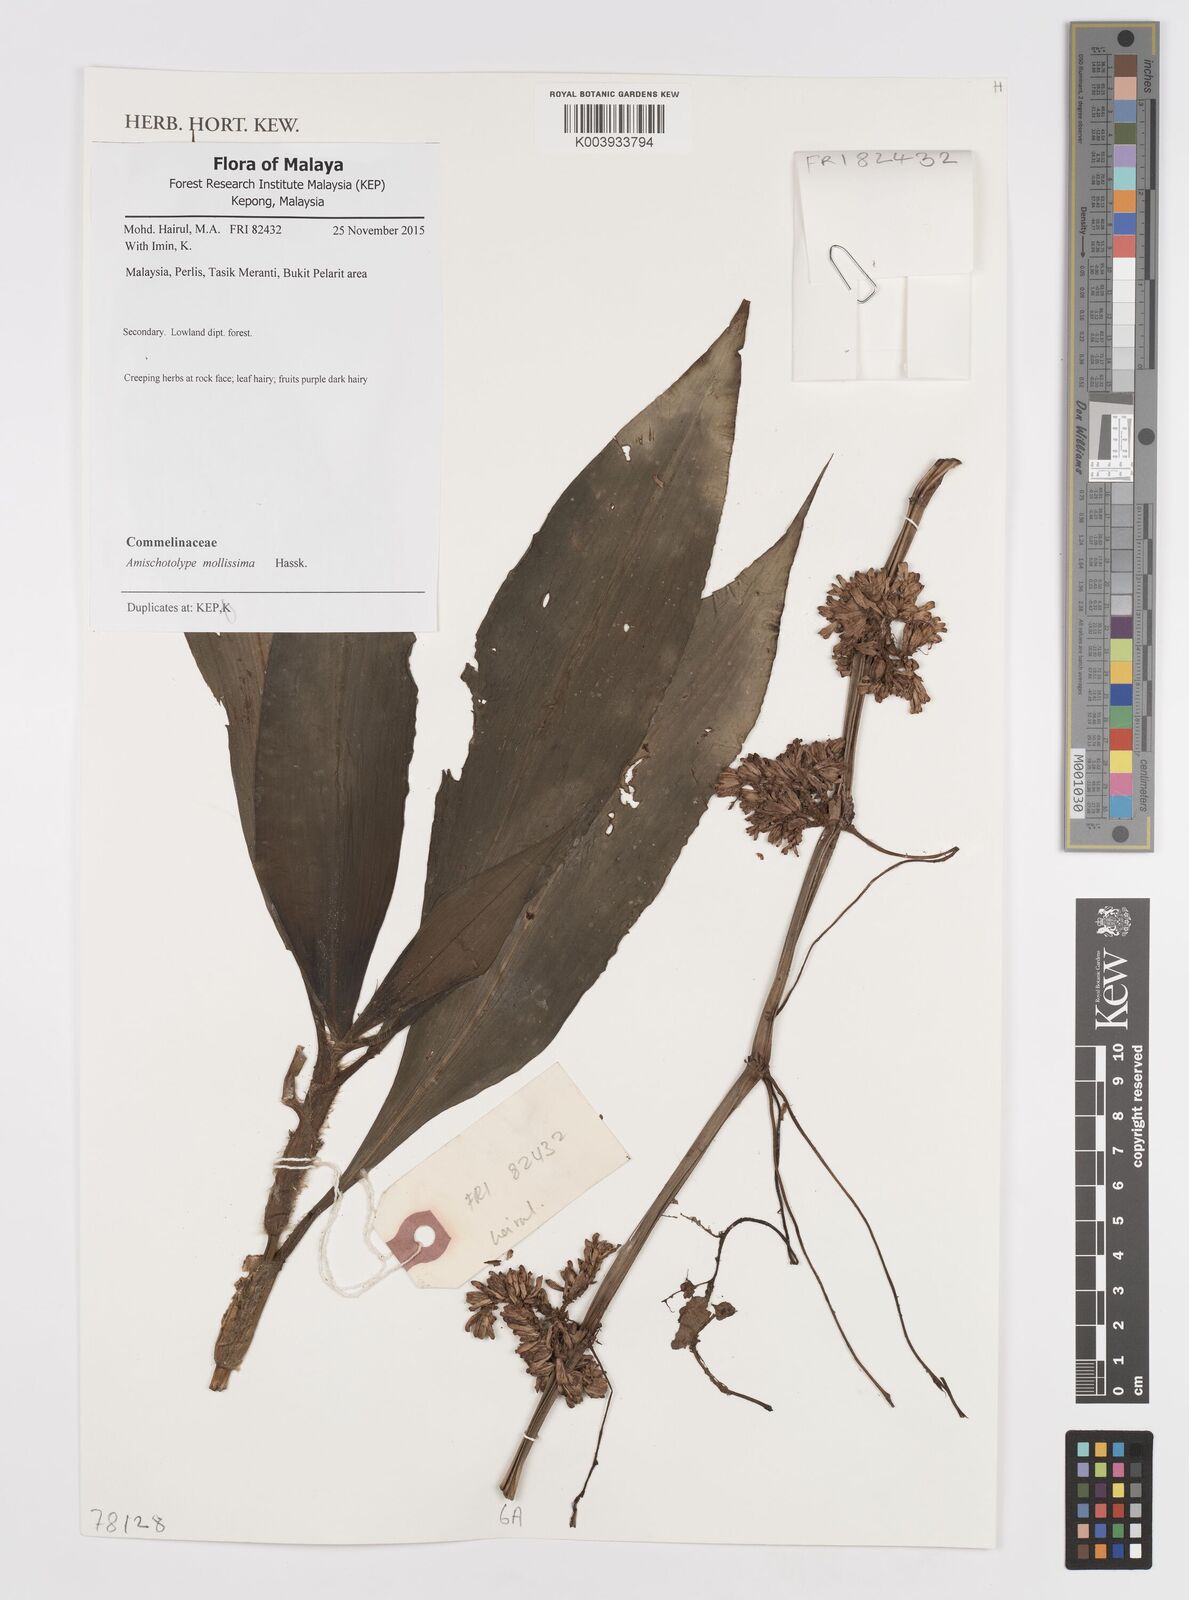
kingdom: Plantae
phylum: Tracheophyta
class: Liliopsida
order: Commelinales
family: Commelinaceae
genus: Amischotolype
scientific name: Amischotolype mollissima
